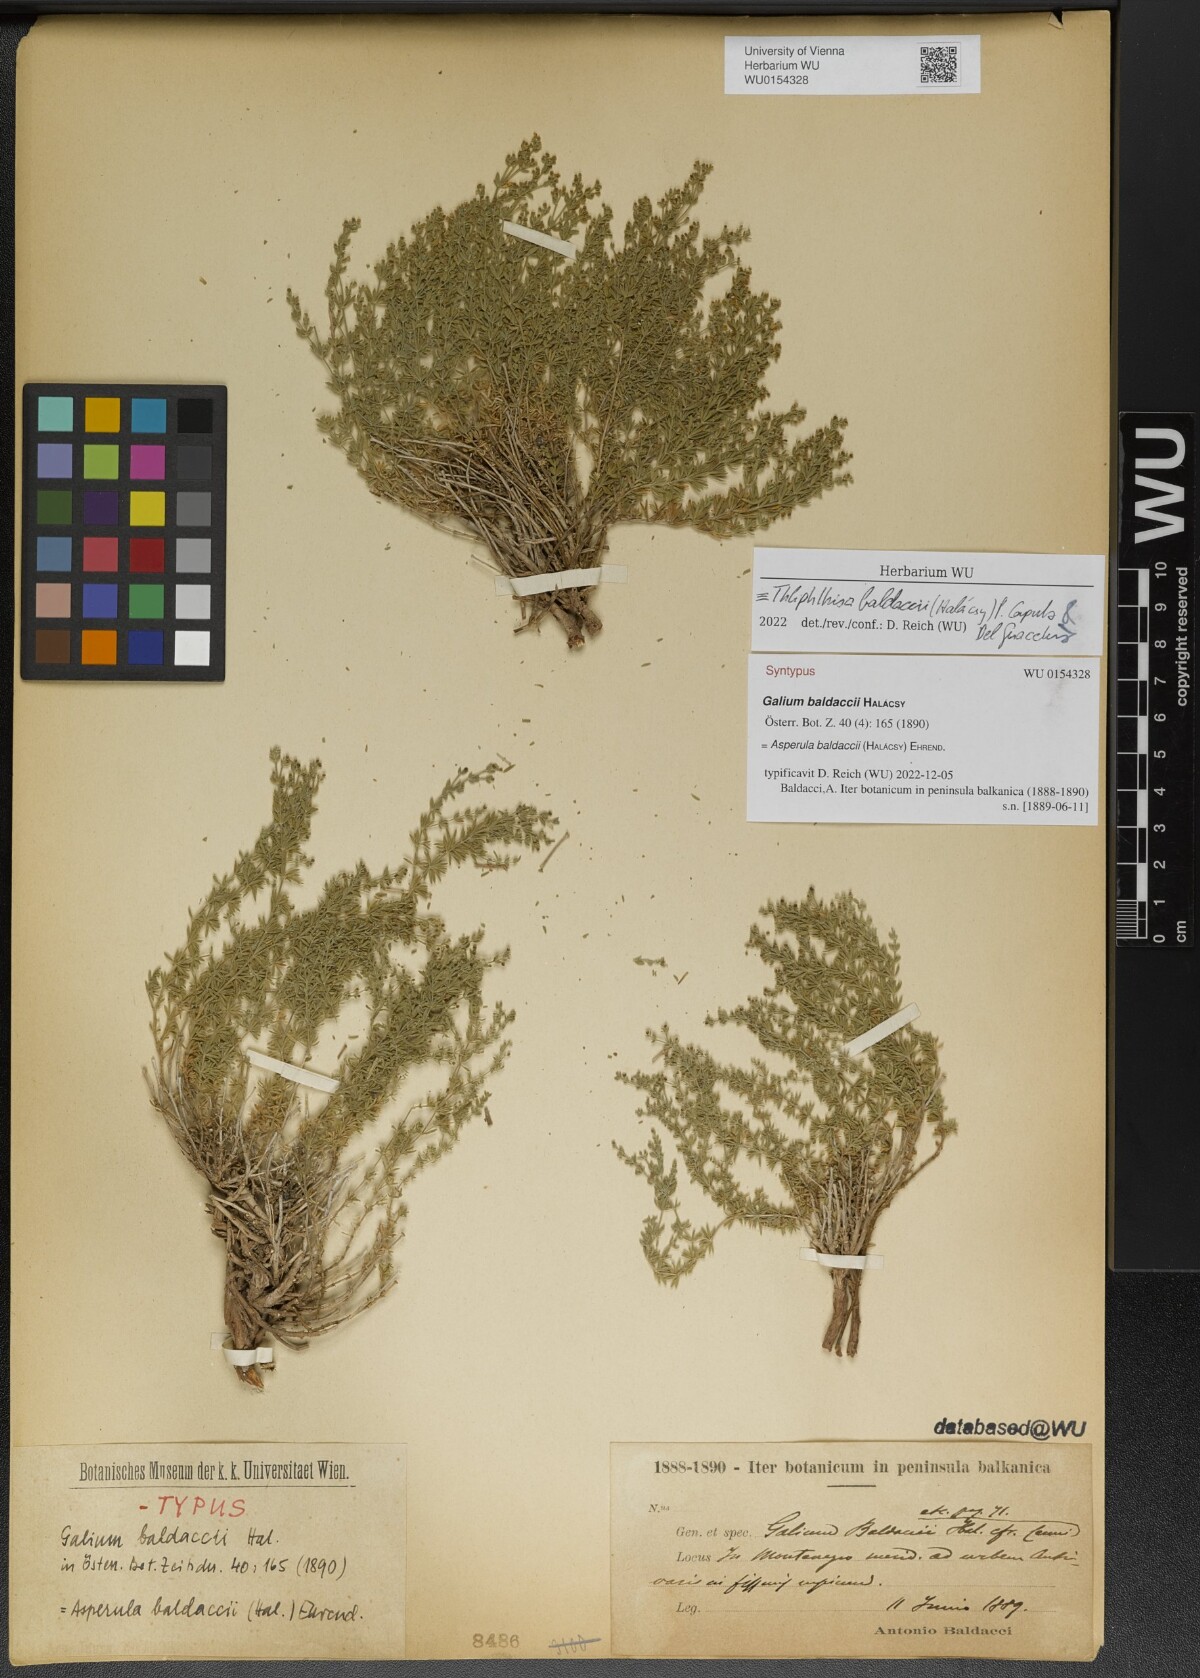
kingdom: Plantae
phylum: Tracheophyta
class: Magnoliopsida
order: Gentianales
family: Rubiaceae
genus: Thliphthisa
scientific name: Thliphthisa baldaccii
